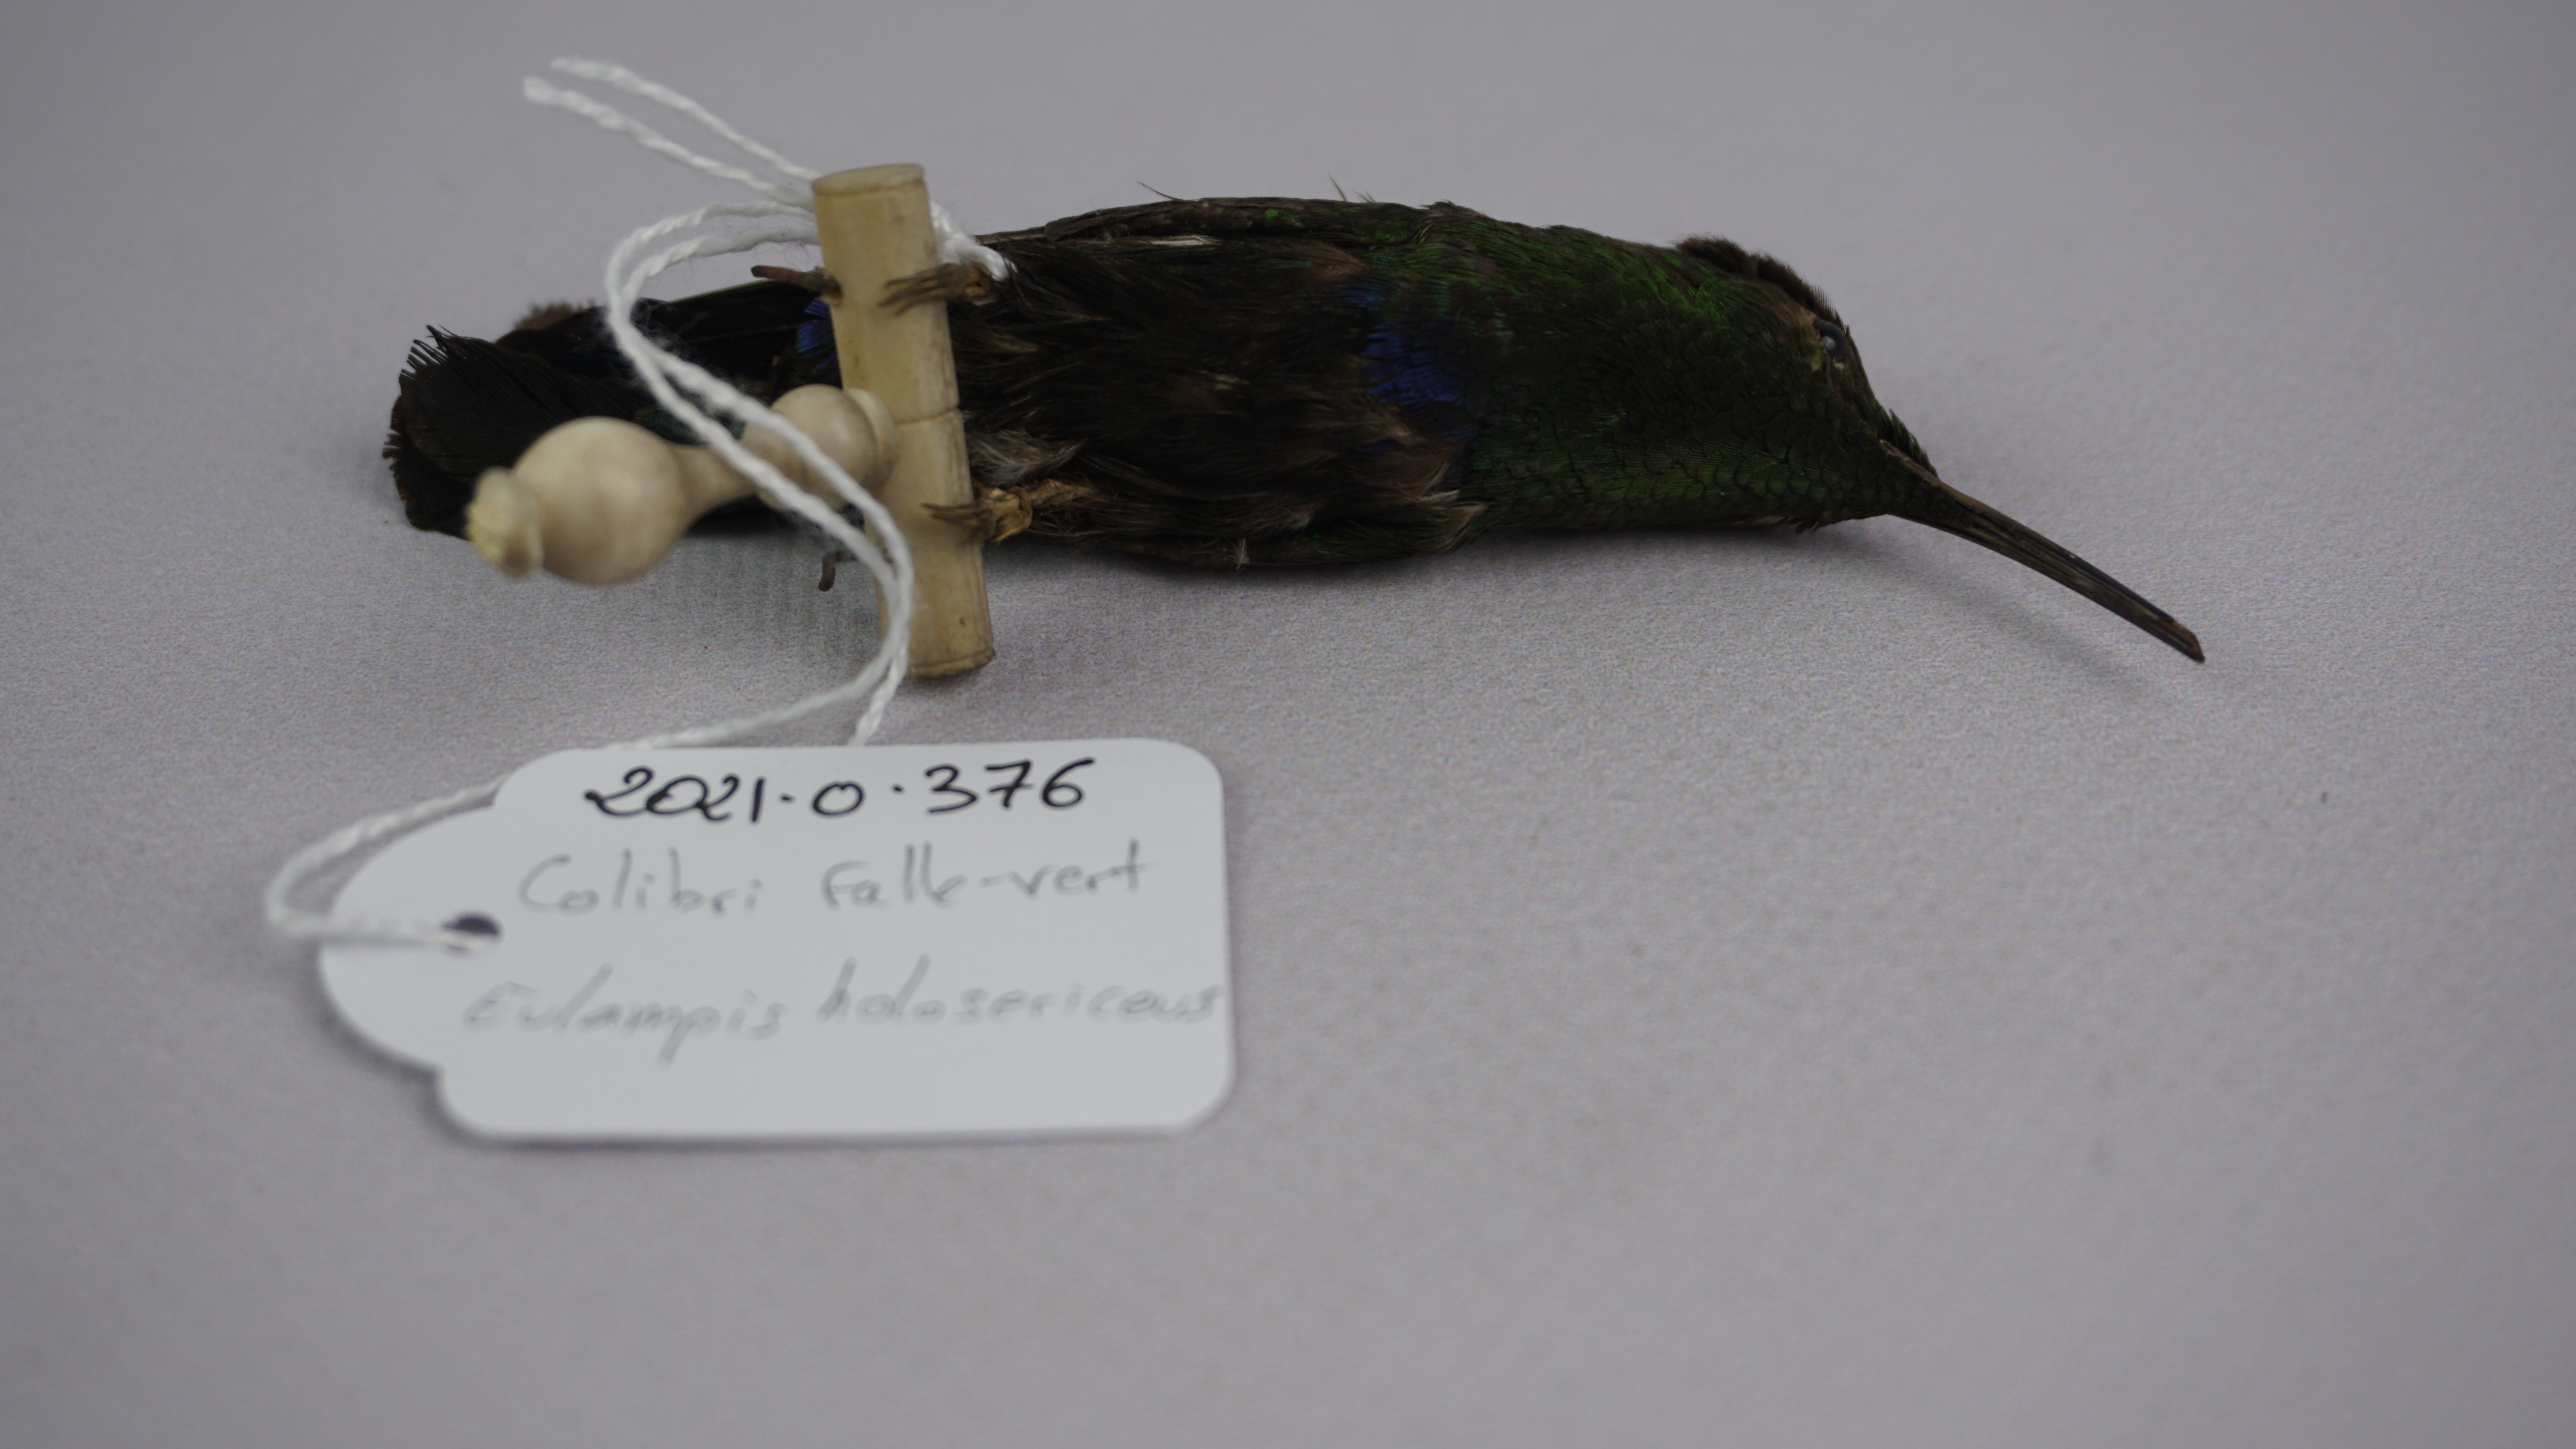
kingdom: Animalia
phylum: Chordata
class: Aves
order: Apodiformes
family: Trochilidae
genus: Eulampis
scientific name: Eulampis holosericeus
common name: Green-throated carib
